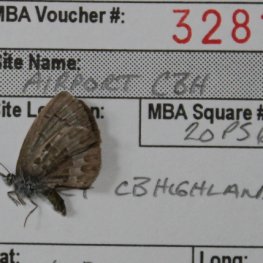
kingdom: Animalia
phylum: Arthropoda
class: Insecta
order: Lepidoptera
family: Lycaenidae
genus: Celastrina
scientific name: Celastrina lucia
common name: Northern Spring Azure
